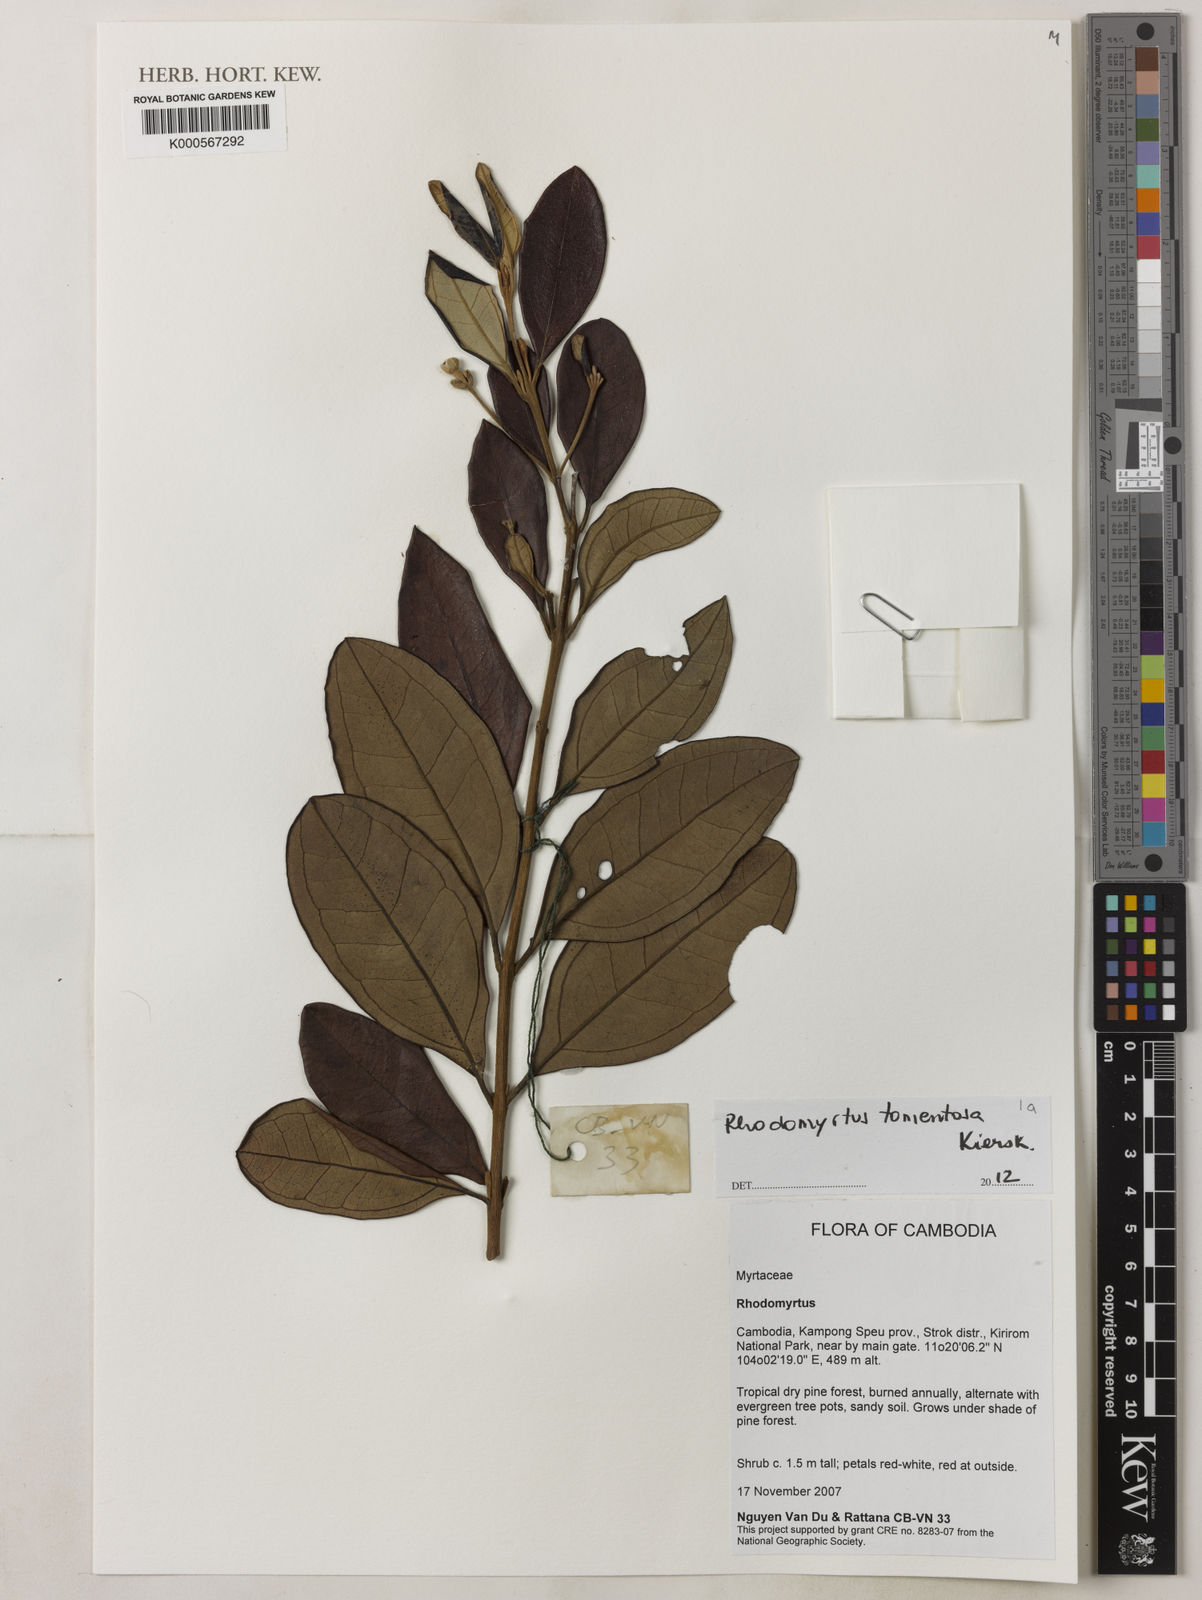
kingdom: Plantae
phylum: Tracheophyta
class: Magnoliopsida
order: Myrtales
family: Myrtaceae
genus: Rhodomyrtus
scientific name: Rhodomyrtus
